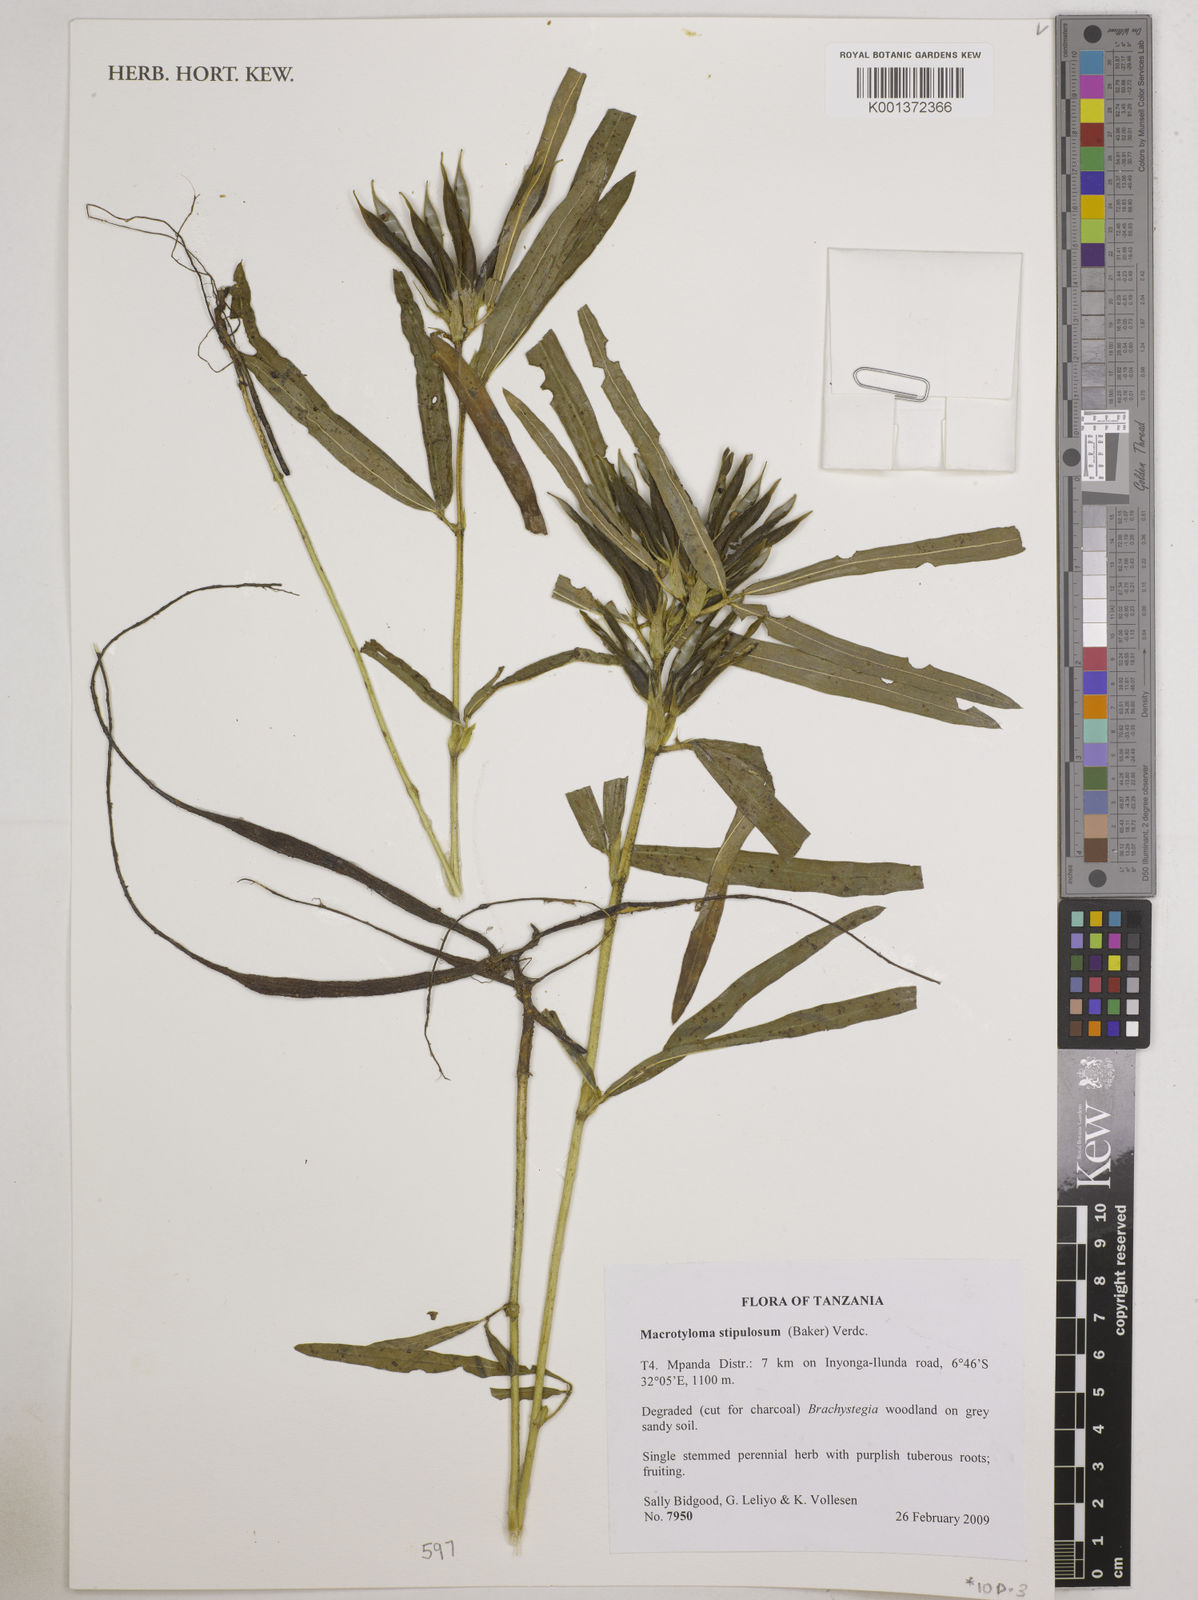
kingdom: Plantae
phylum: Tracheophyta
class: Magnoliopsida
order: Fabales
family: Fabaceae
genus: Macrotyloma
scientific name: Macrotyloma stipulosum
